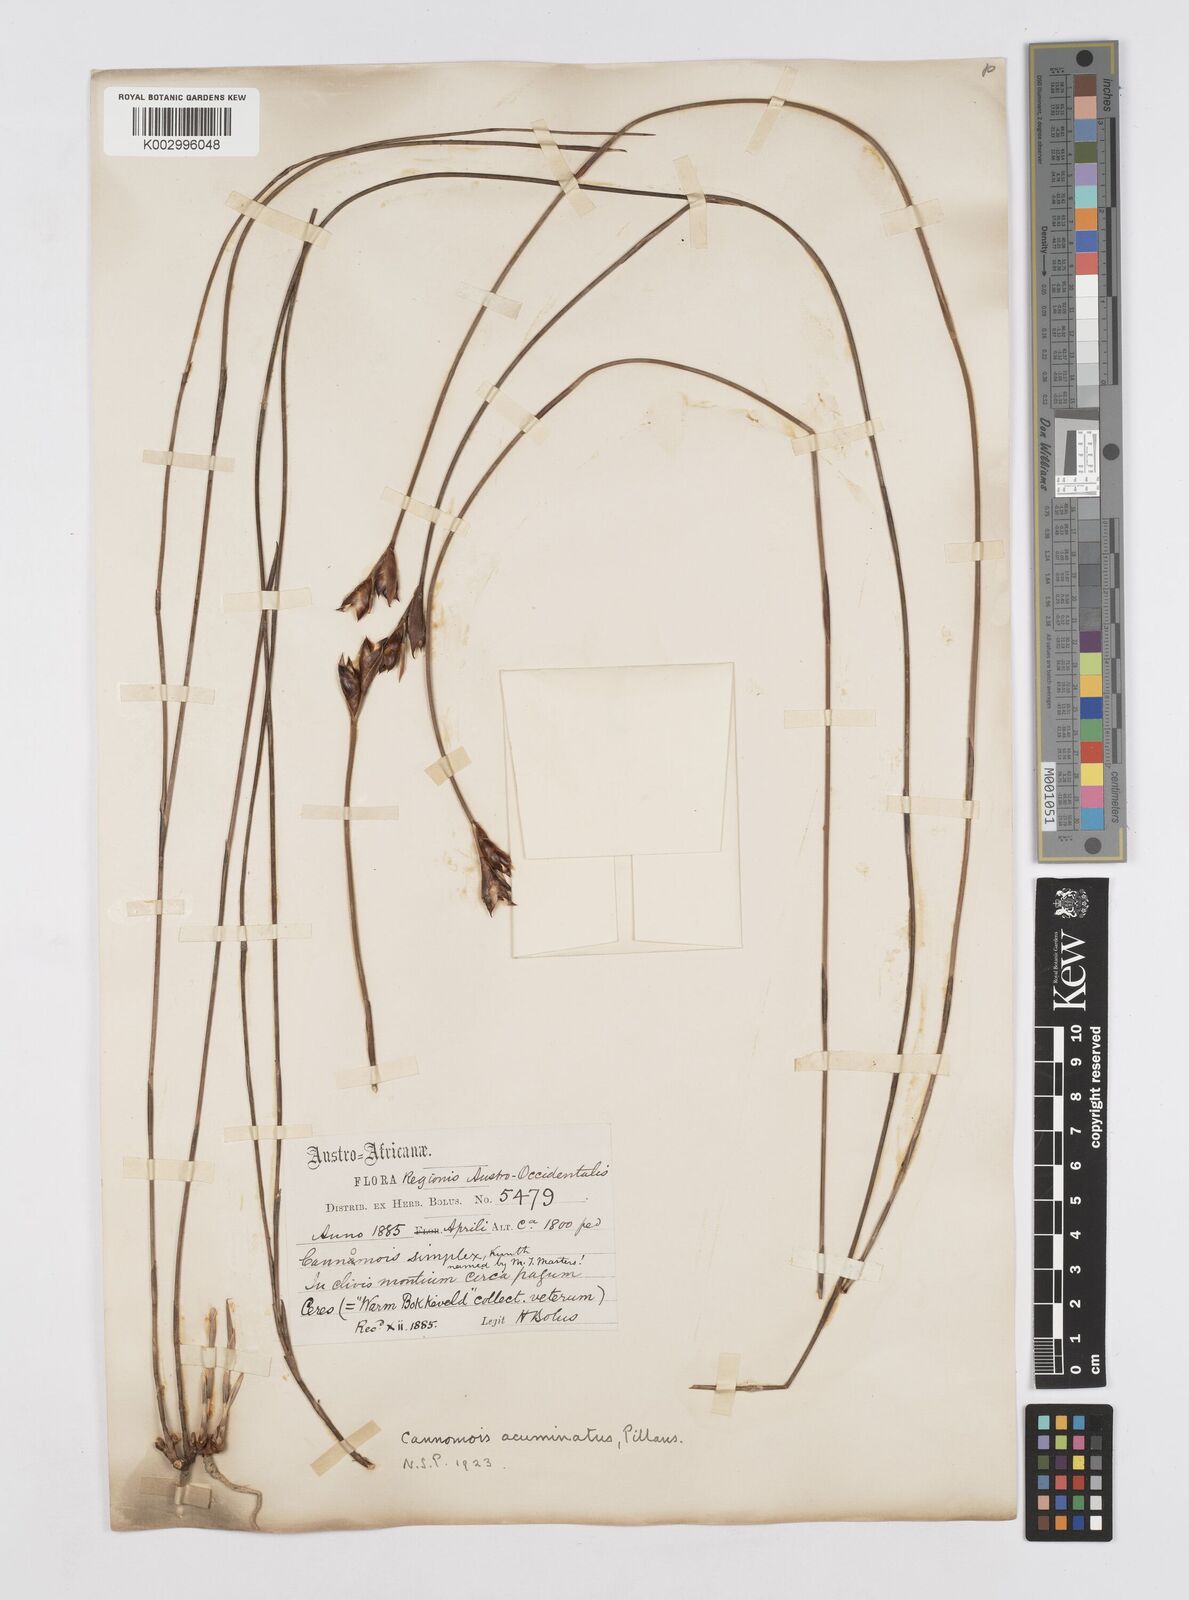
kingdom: Plantae
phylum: Tracheophyta
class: Liliopsida
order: Poales
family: Restionaceae
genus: Cannomois
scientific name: Cannomois parviflora
